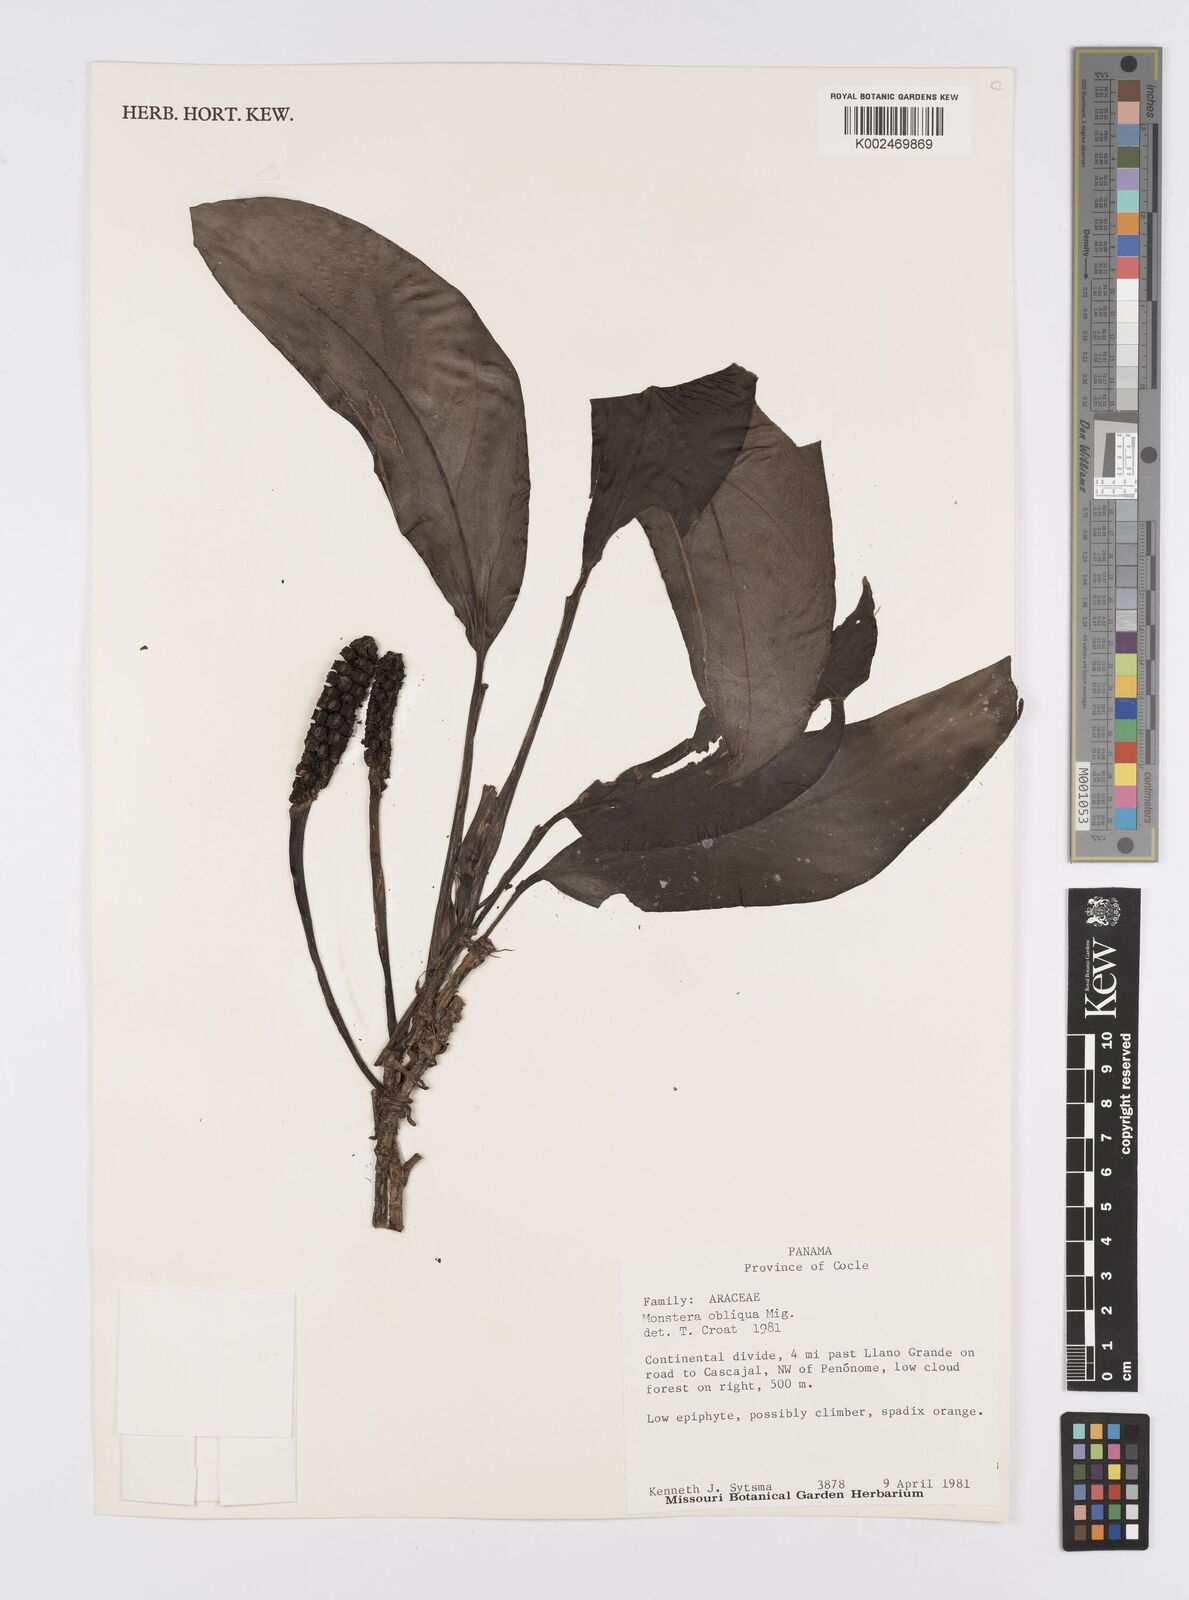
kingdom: Plantae
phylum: Tracheophyta
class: Liliopsida
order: Alismatales
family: Araceae
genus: Monstera
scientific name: Monstera obliqua
